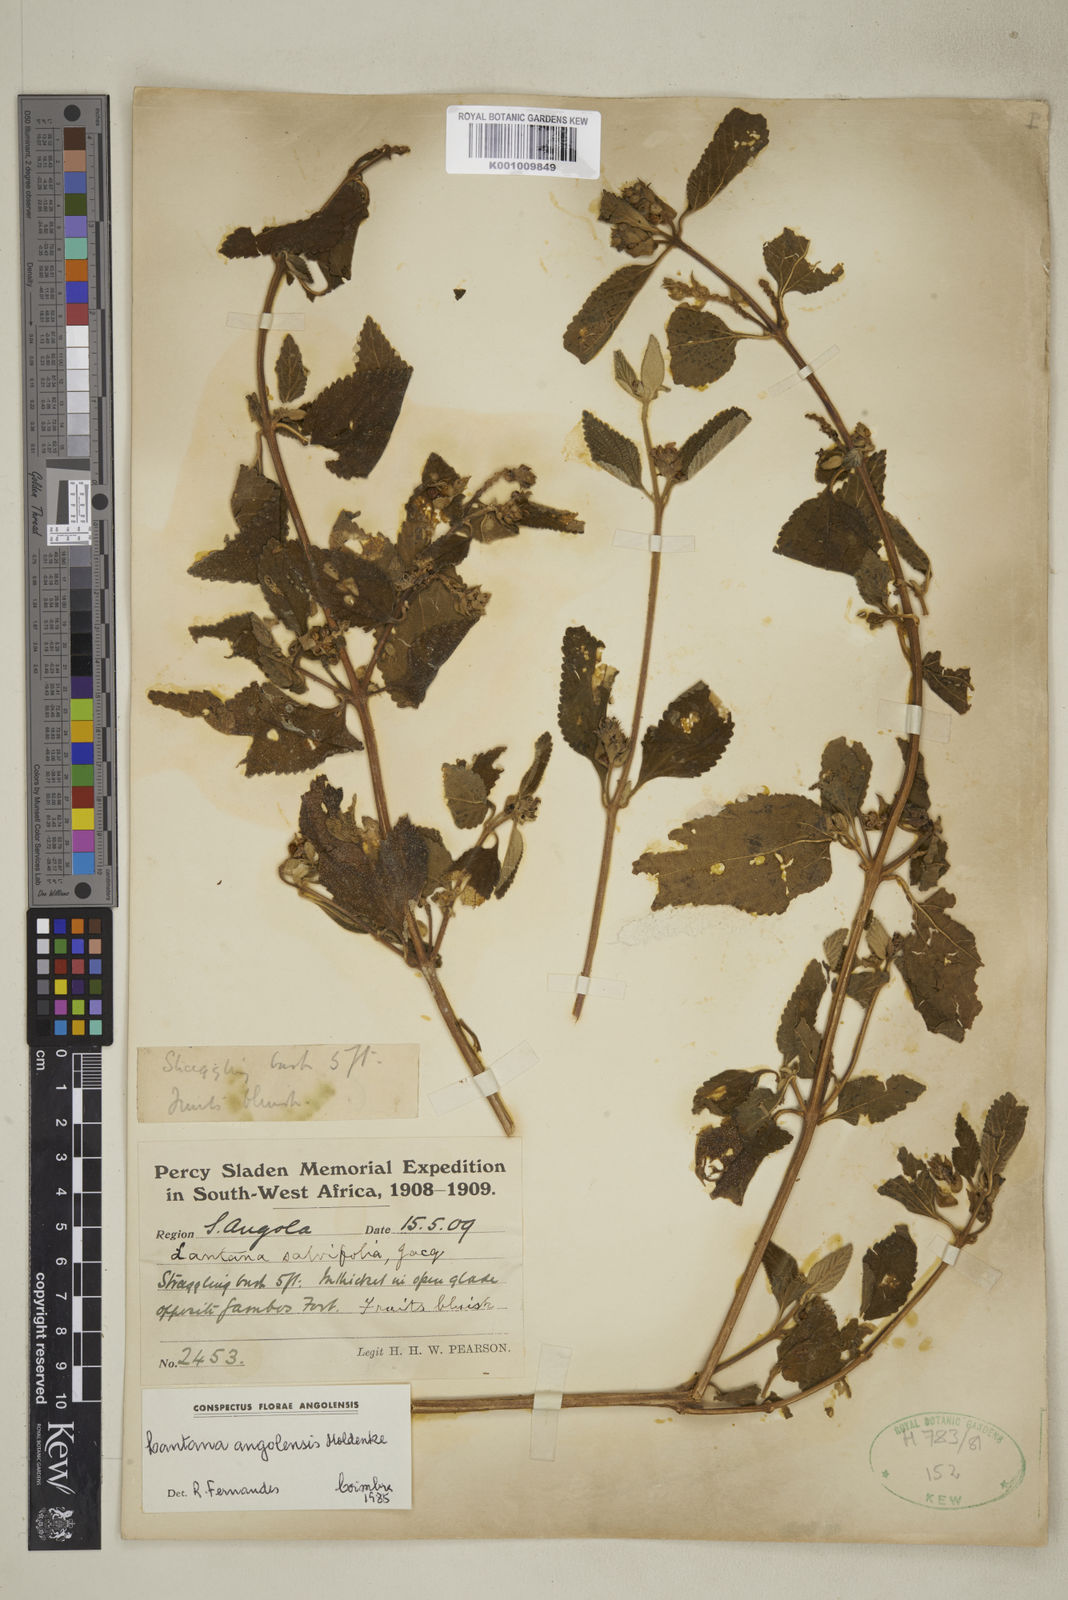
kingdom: Plantae
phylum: Tracheophyta
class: Magnoliopsida
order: Lamiales
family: Verbenaceae
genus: Lantana
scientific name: Lantana angolensis
